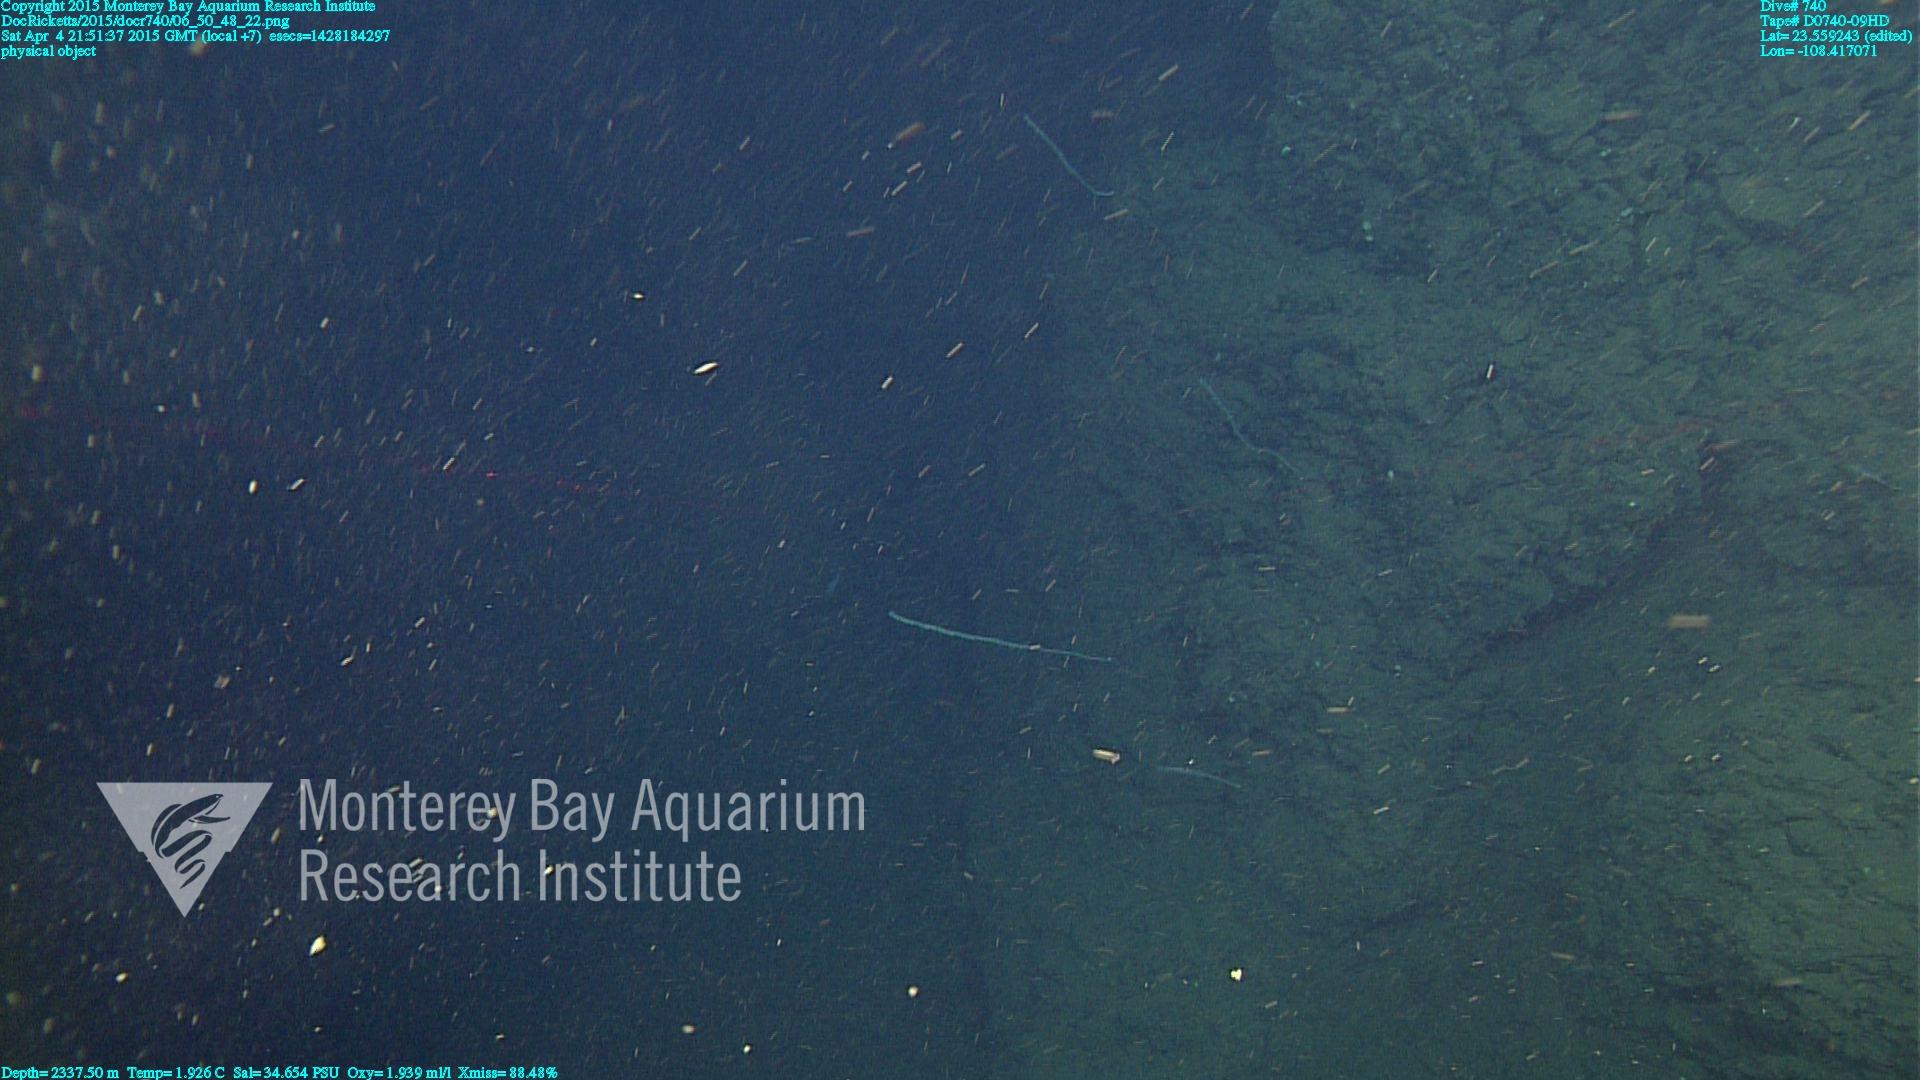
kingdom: Animalia
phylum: Cnidaria
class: Anthozoa
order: Scleralcyonacea
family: Keratoisididae
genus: Lepidisis
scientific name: Lepidisis
